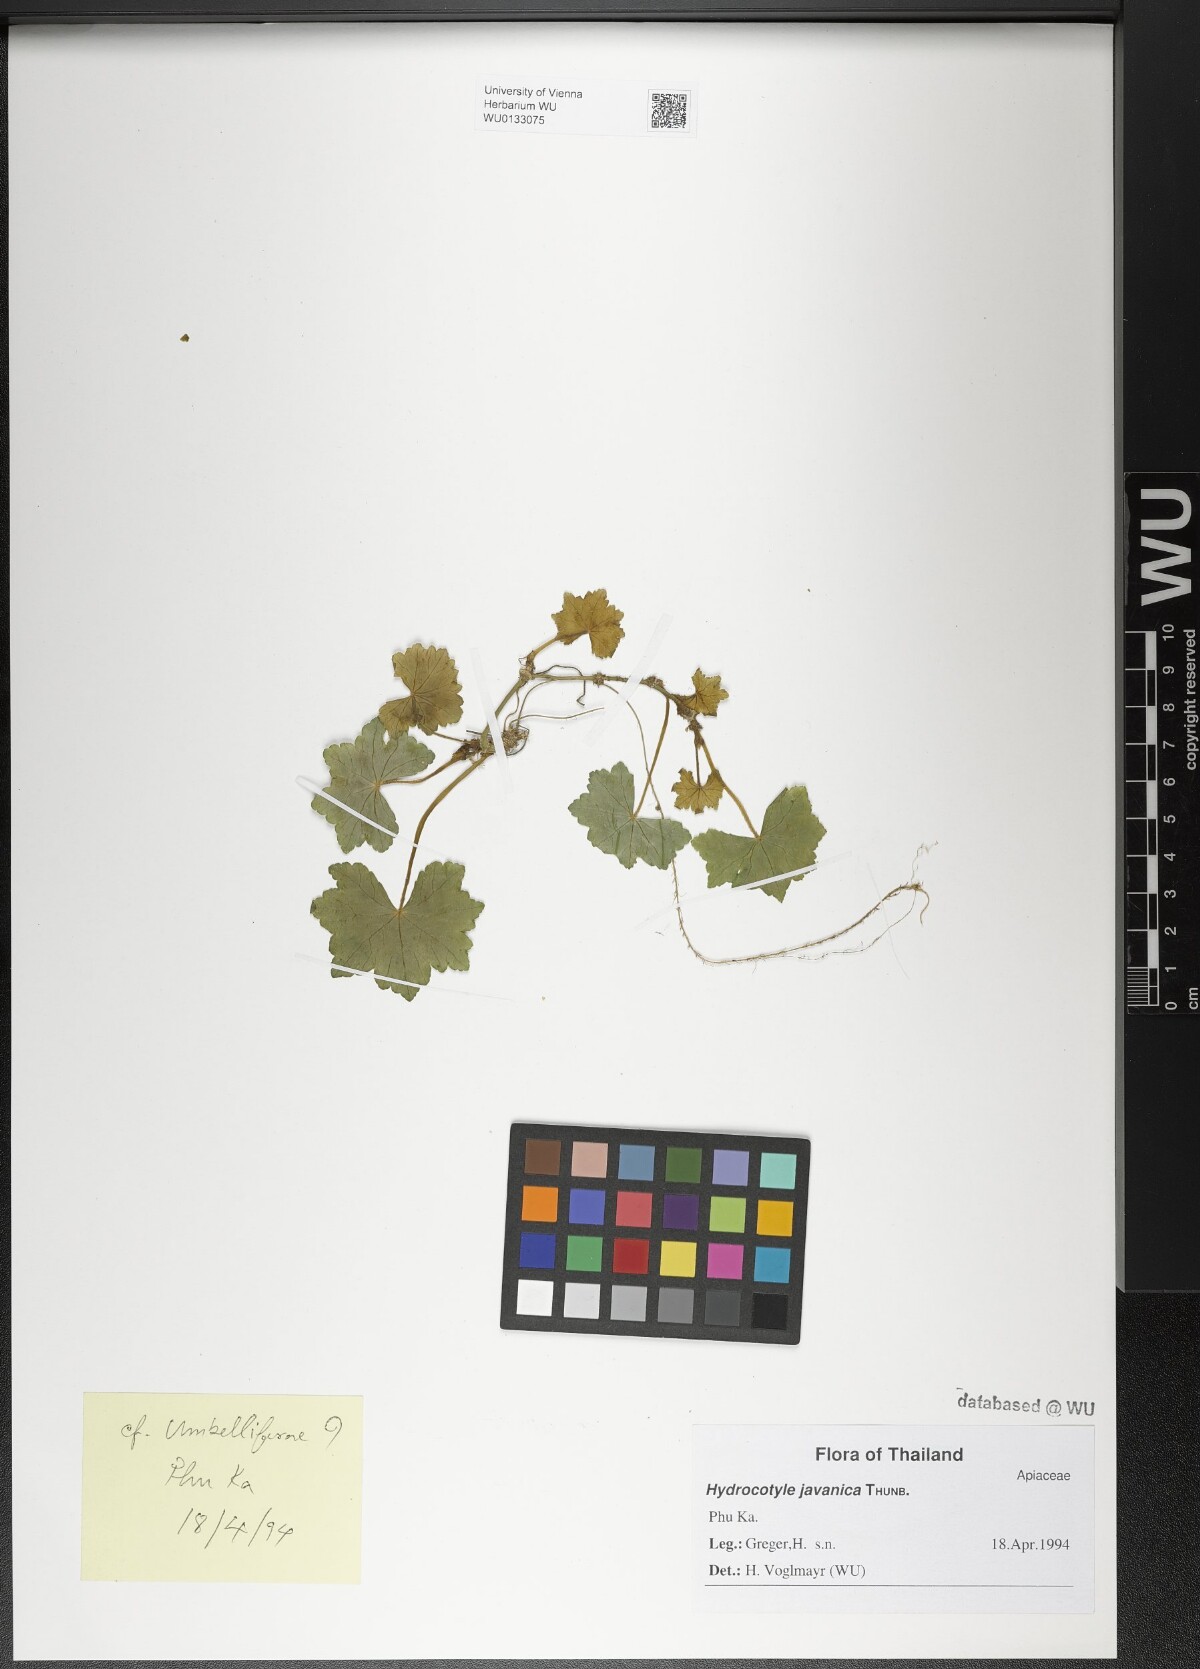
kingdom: Plantae
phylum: Tracheophyta
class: Magnoliopsida
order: Apiales
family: Araliaceae
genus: Hydrocotyle
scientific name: Hydrocotyle javanica
